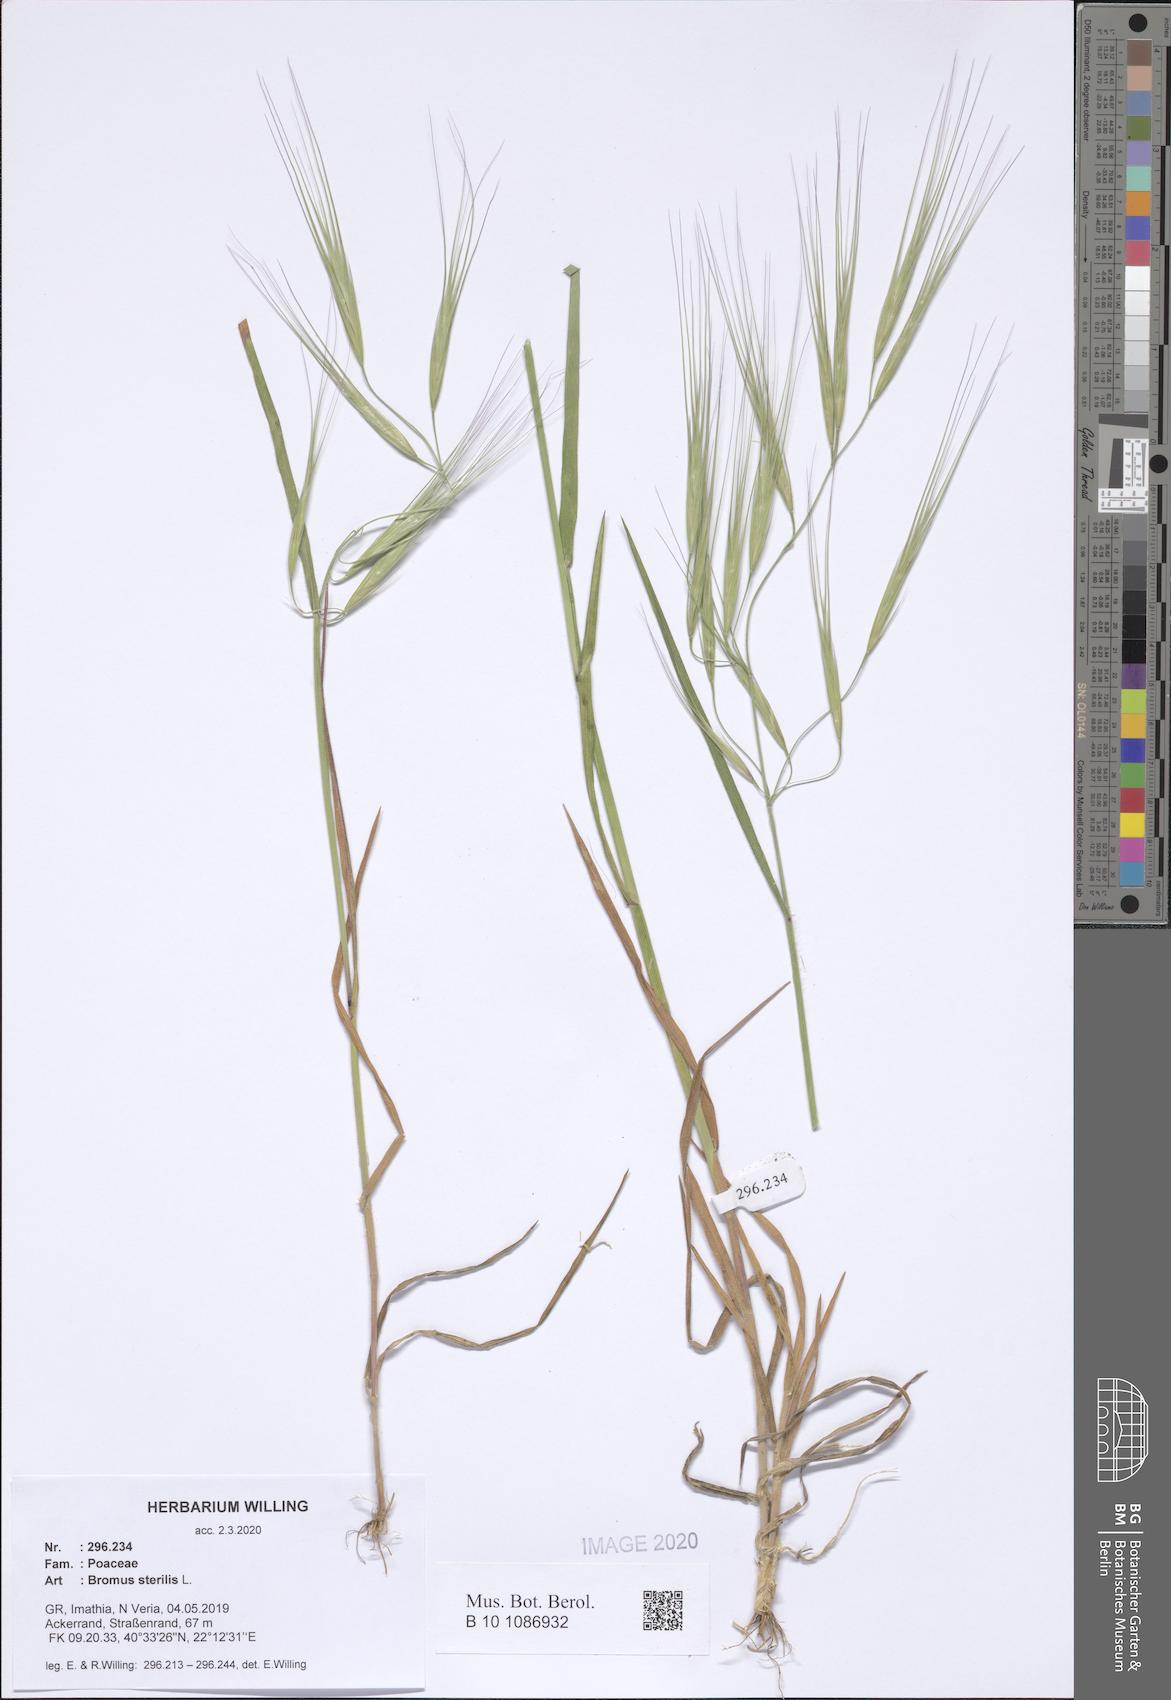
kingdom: Plantae
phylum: Tracheophyta
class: Liliopsida
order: Poales
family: Poaceae
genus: Bromus
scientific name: Bromus sterilis
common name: Poverty brome
